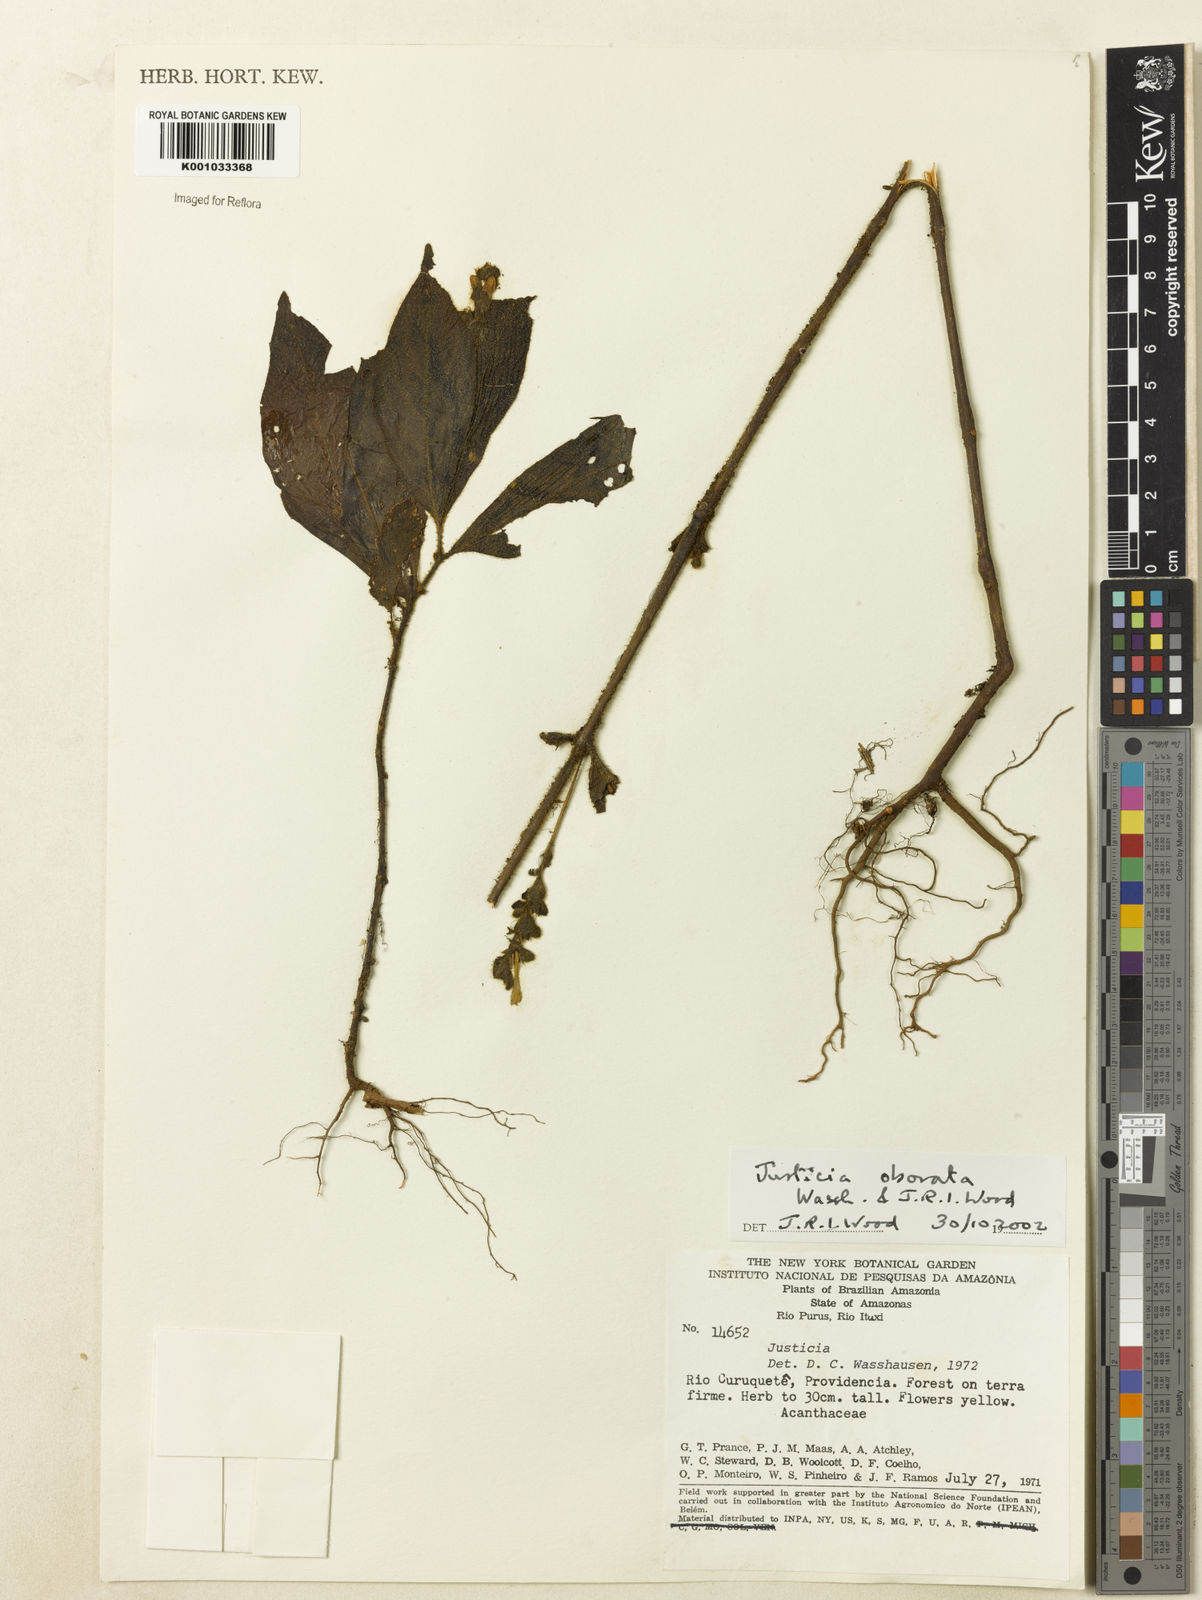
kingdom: Plantae
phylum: Tracheophyta
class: Magnoliopsida
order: Lamiales
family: Acanthaceae
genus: Justicia
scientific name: Justicia obovata
